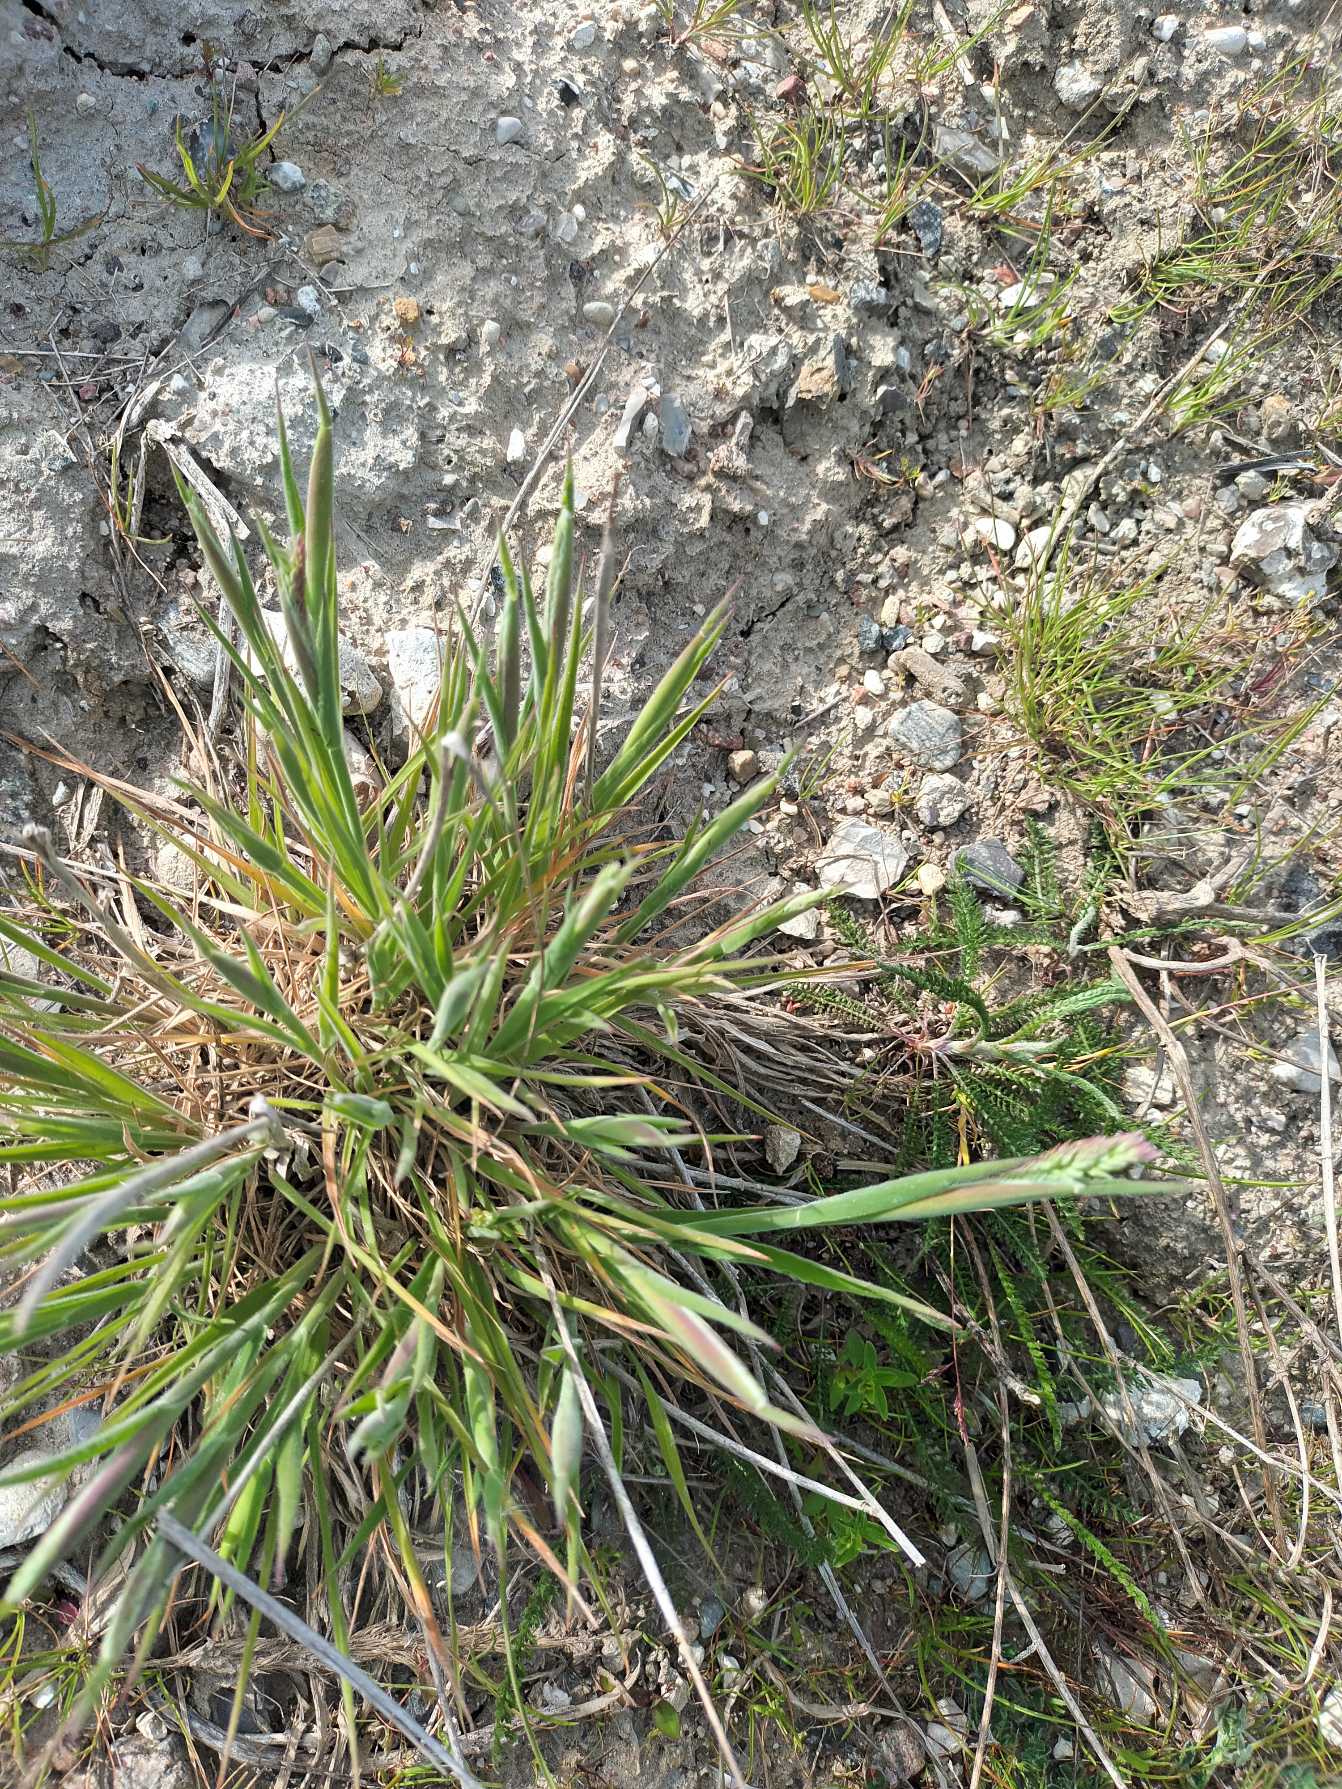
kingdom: Plantae
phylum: Tracheophyta
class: Liliopsida
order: Poales
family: Poaceae
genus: Holcus
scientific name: Holcus lanatus
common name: Fløjlsgræs
